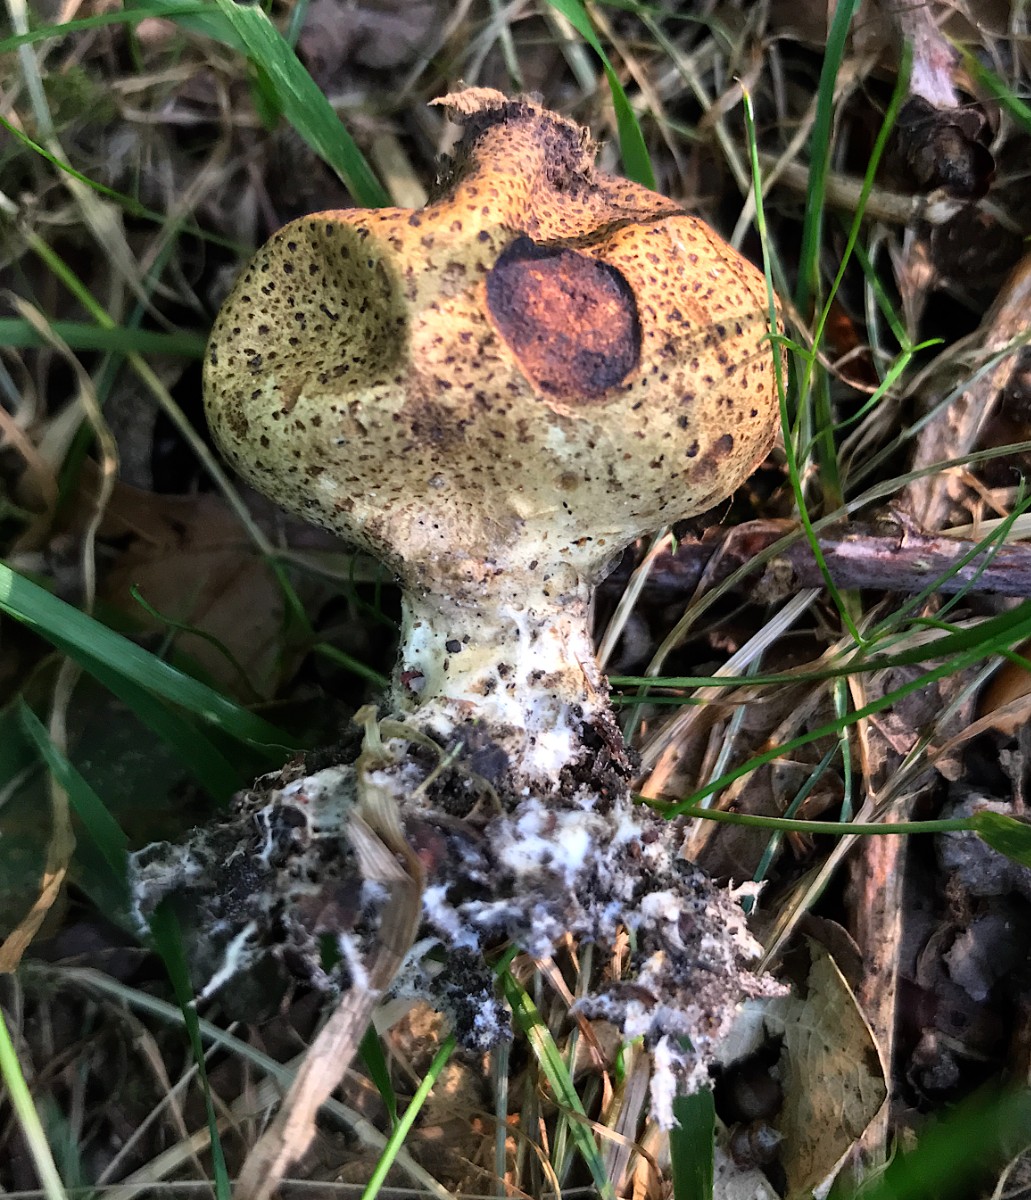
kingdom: Fungi
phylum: Basidiomycota
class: Agaricomycetes
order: Boletales
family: Sclerodermataceae
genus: Scleroderma
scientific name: Scleroderma verrucosum
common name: stilket bruskbold
